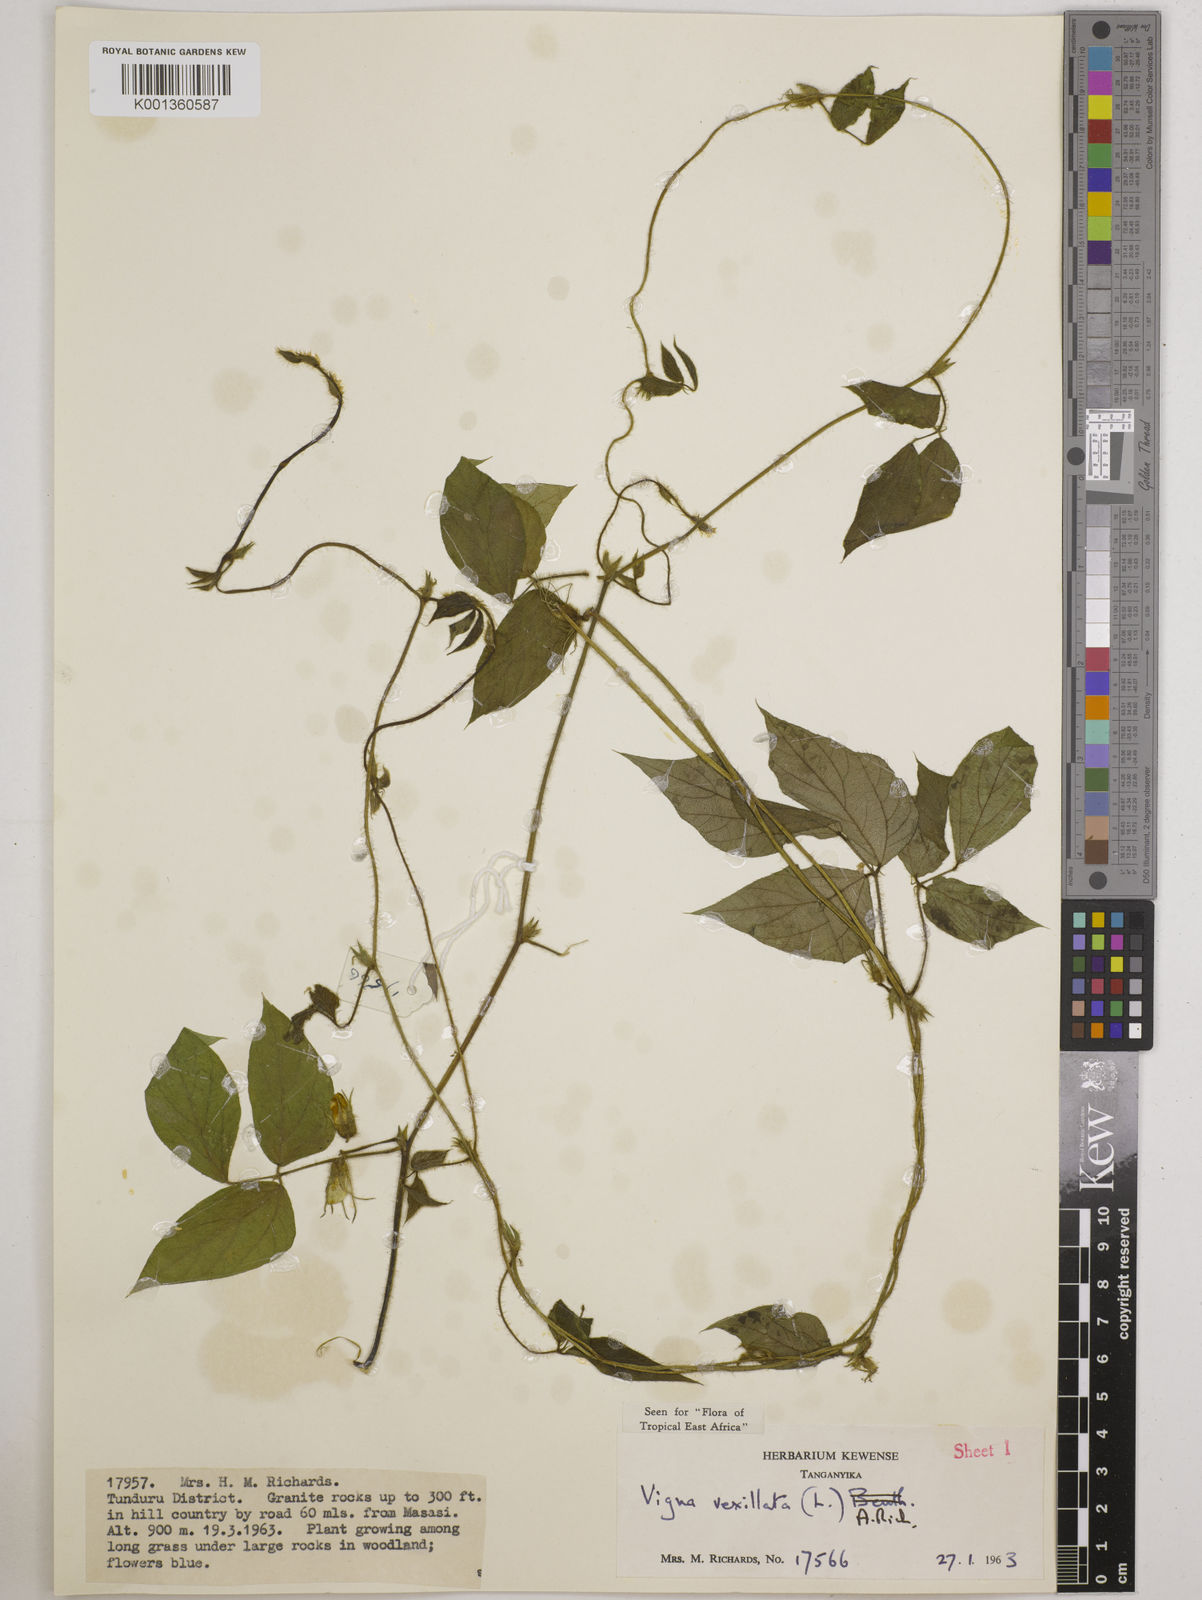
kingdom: Plantae
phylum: Tracheophyta
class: Magnoliopsida
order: Fabales
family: Fabaceae
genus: Vigna
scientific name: Vigna vexillata
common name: Zombi pea
